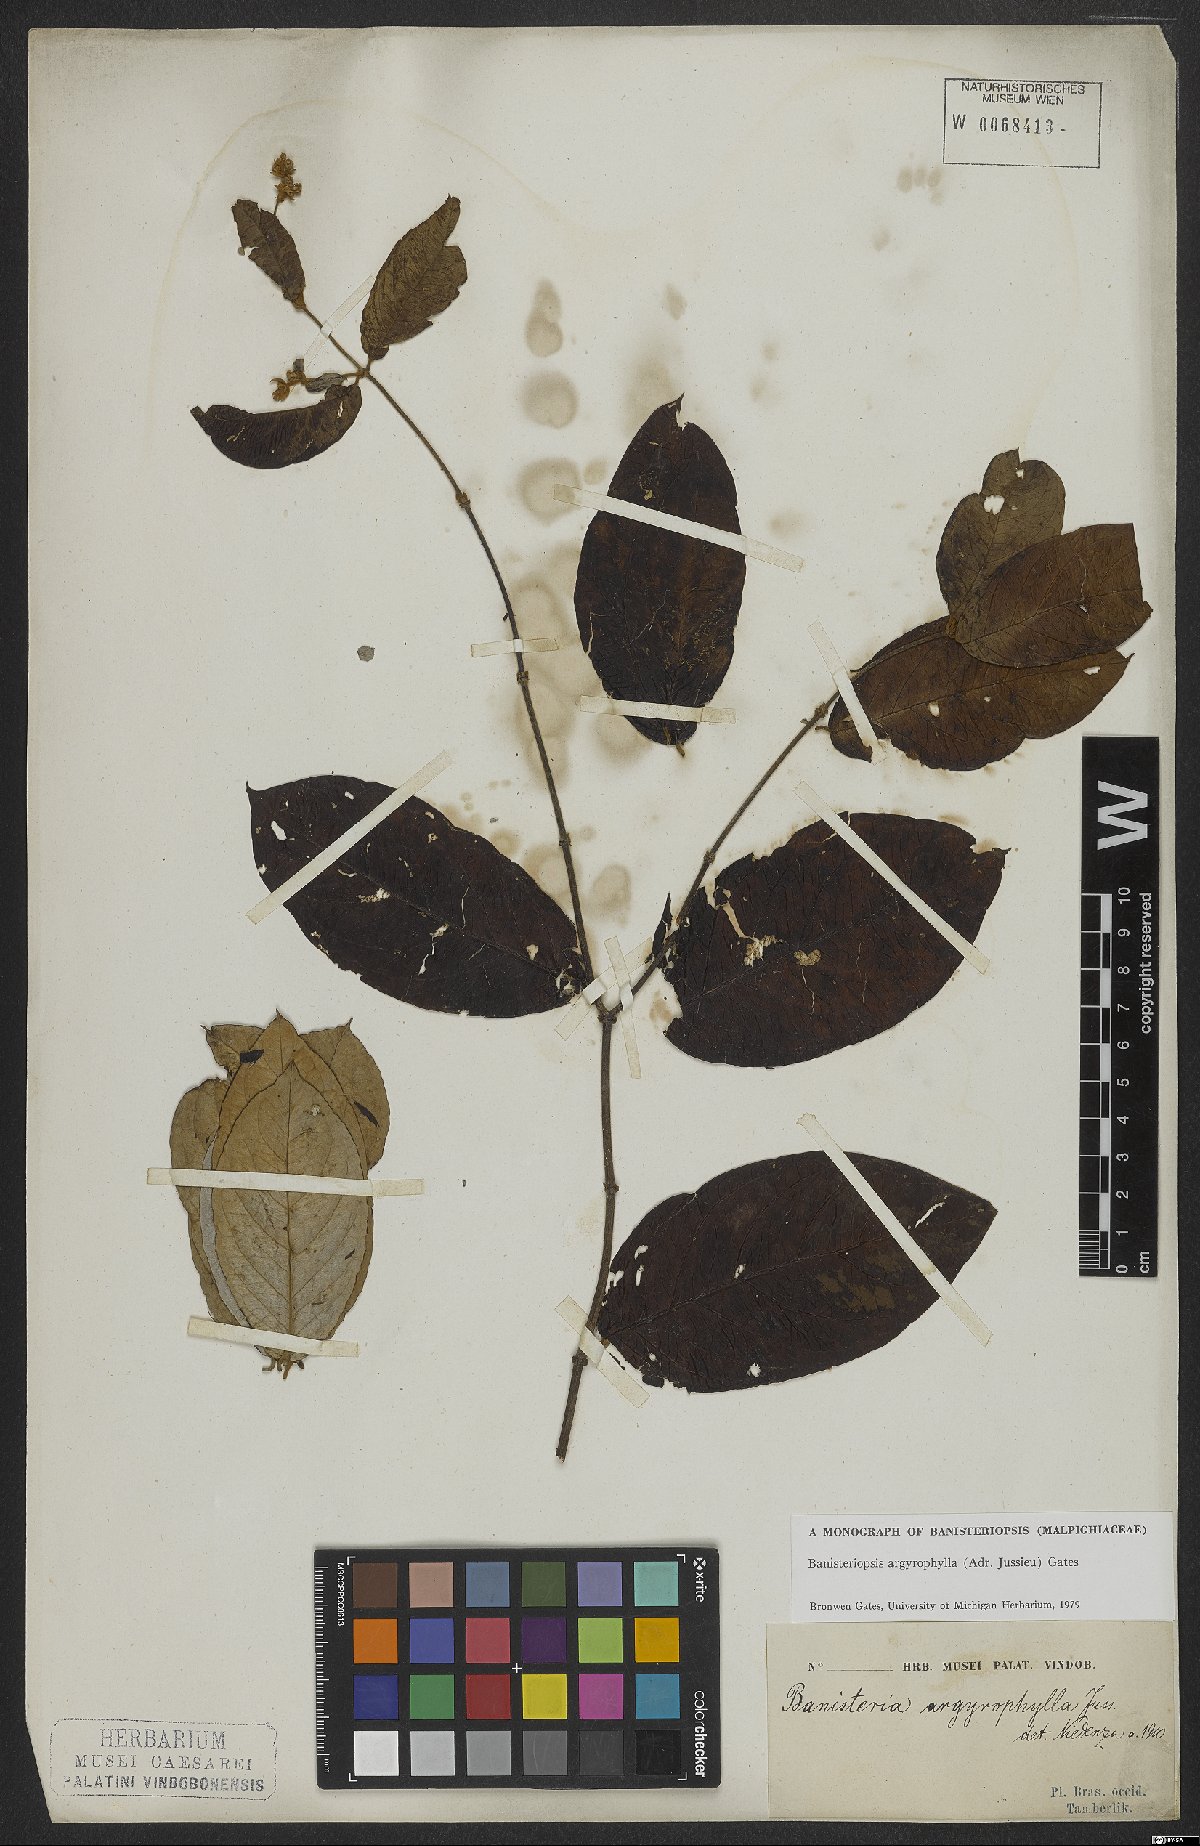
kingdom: Plantae
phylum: Tracheophyta
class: Magnoliopsida
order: Malpighiales
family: Malpighiaceae
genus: Banisteriopsis
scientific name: Banisteriopsis argyrophylla
